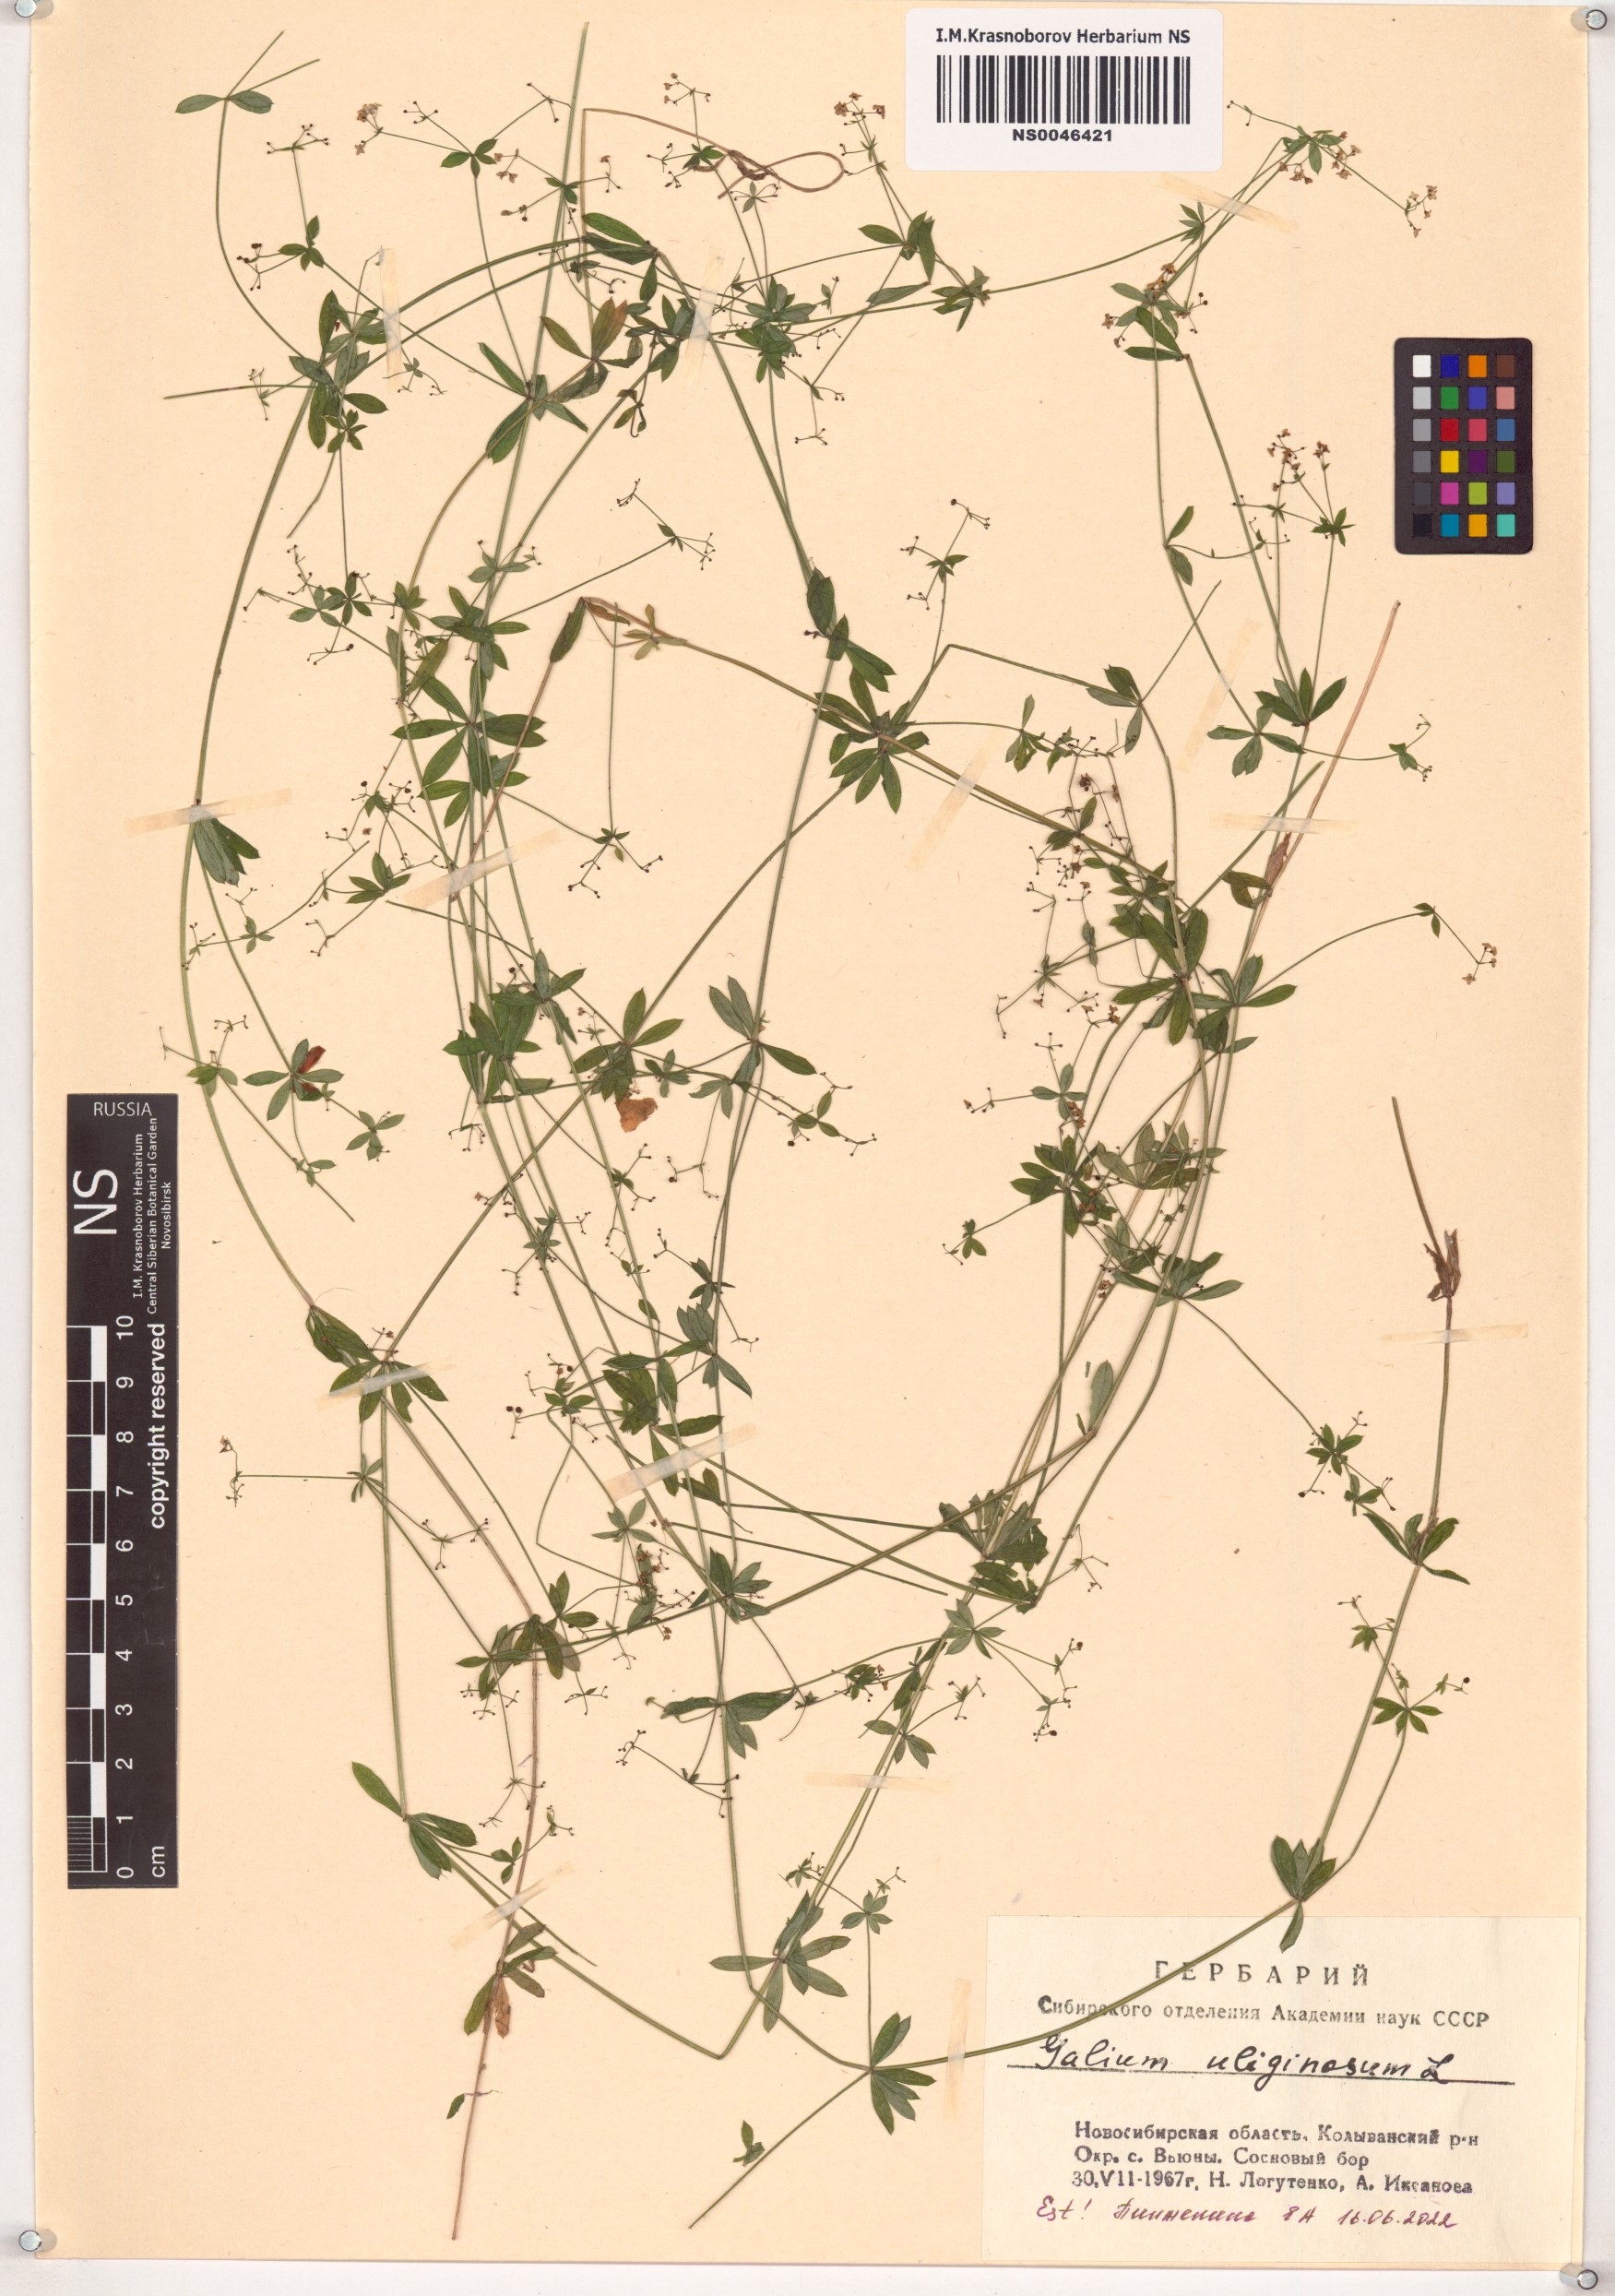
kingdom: Plantae
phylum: Tracheophyta
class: Magnoliopsida
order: Gentianales
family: Rubiaceae
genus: Galium
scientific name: Galium uliginosum
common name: Fen bedstraw
